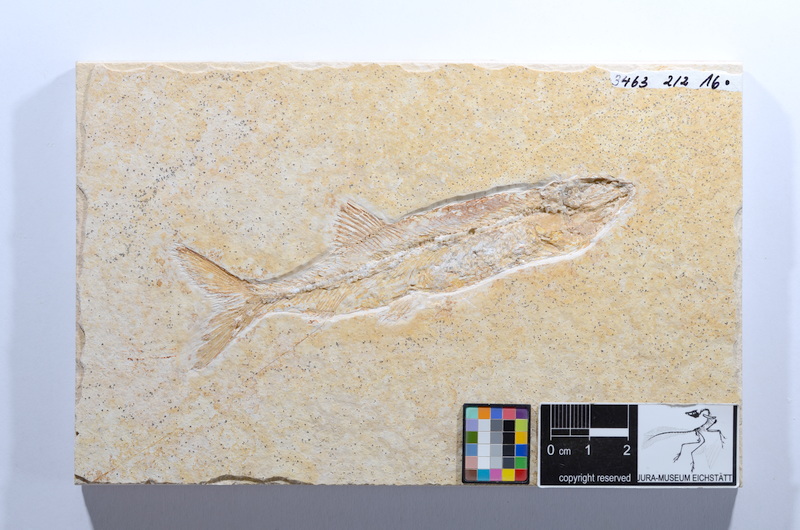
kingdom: Animalia
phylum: Chordata
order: Elopiformes
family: Anaethalionidae
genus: Anaethalion
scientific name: Anaethalion angustissimus
